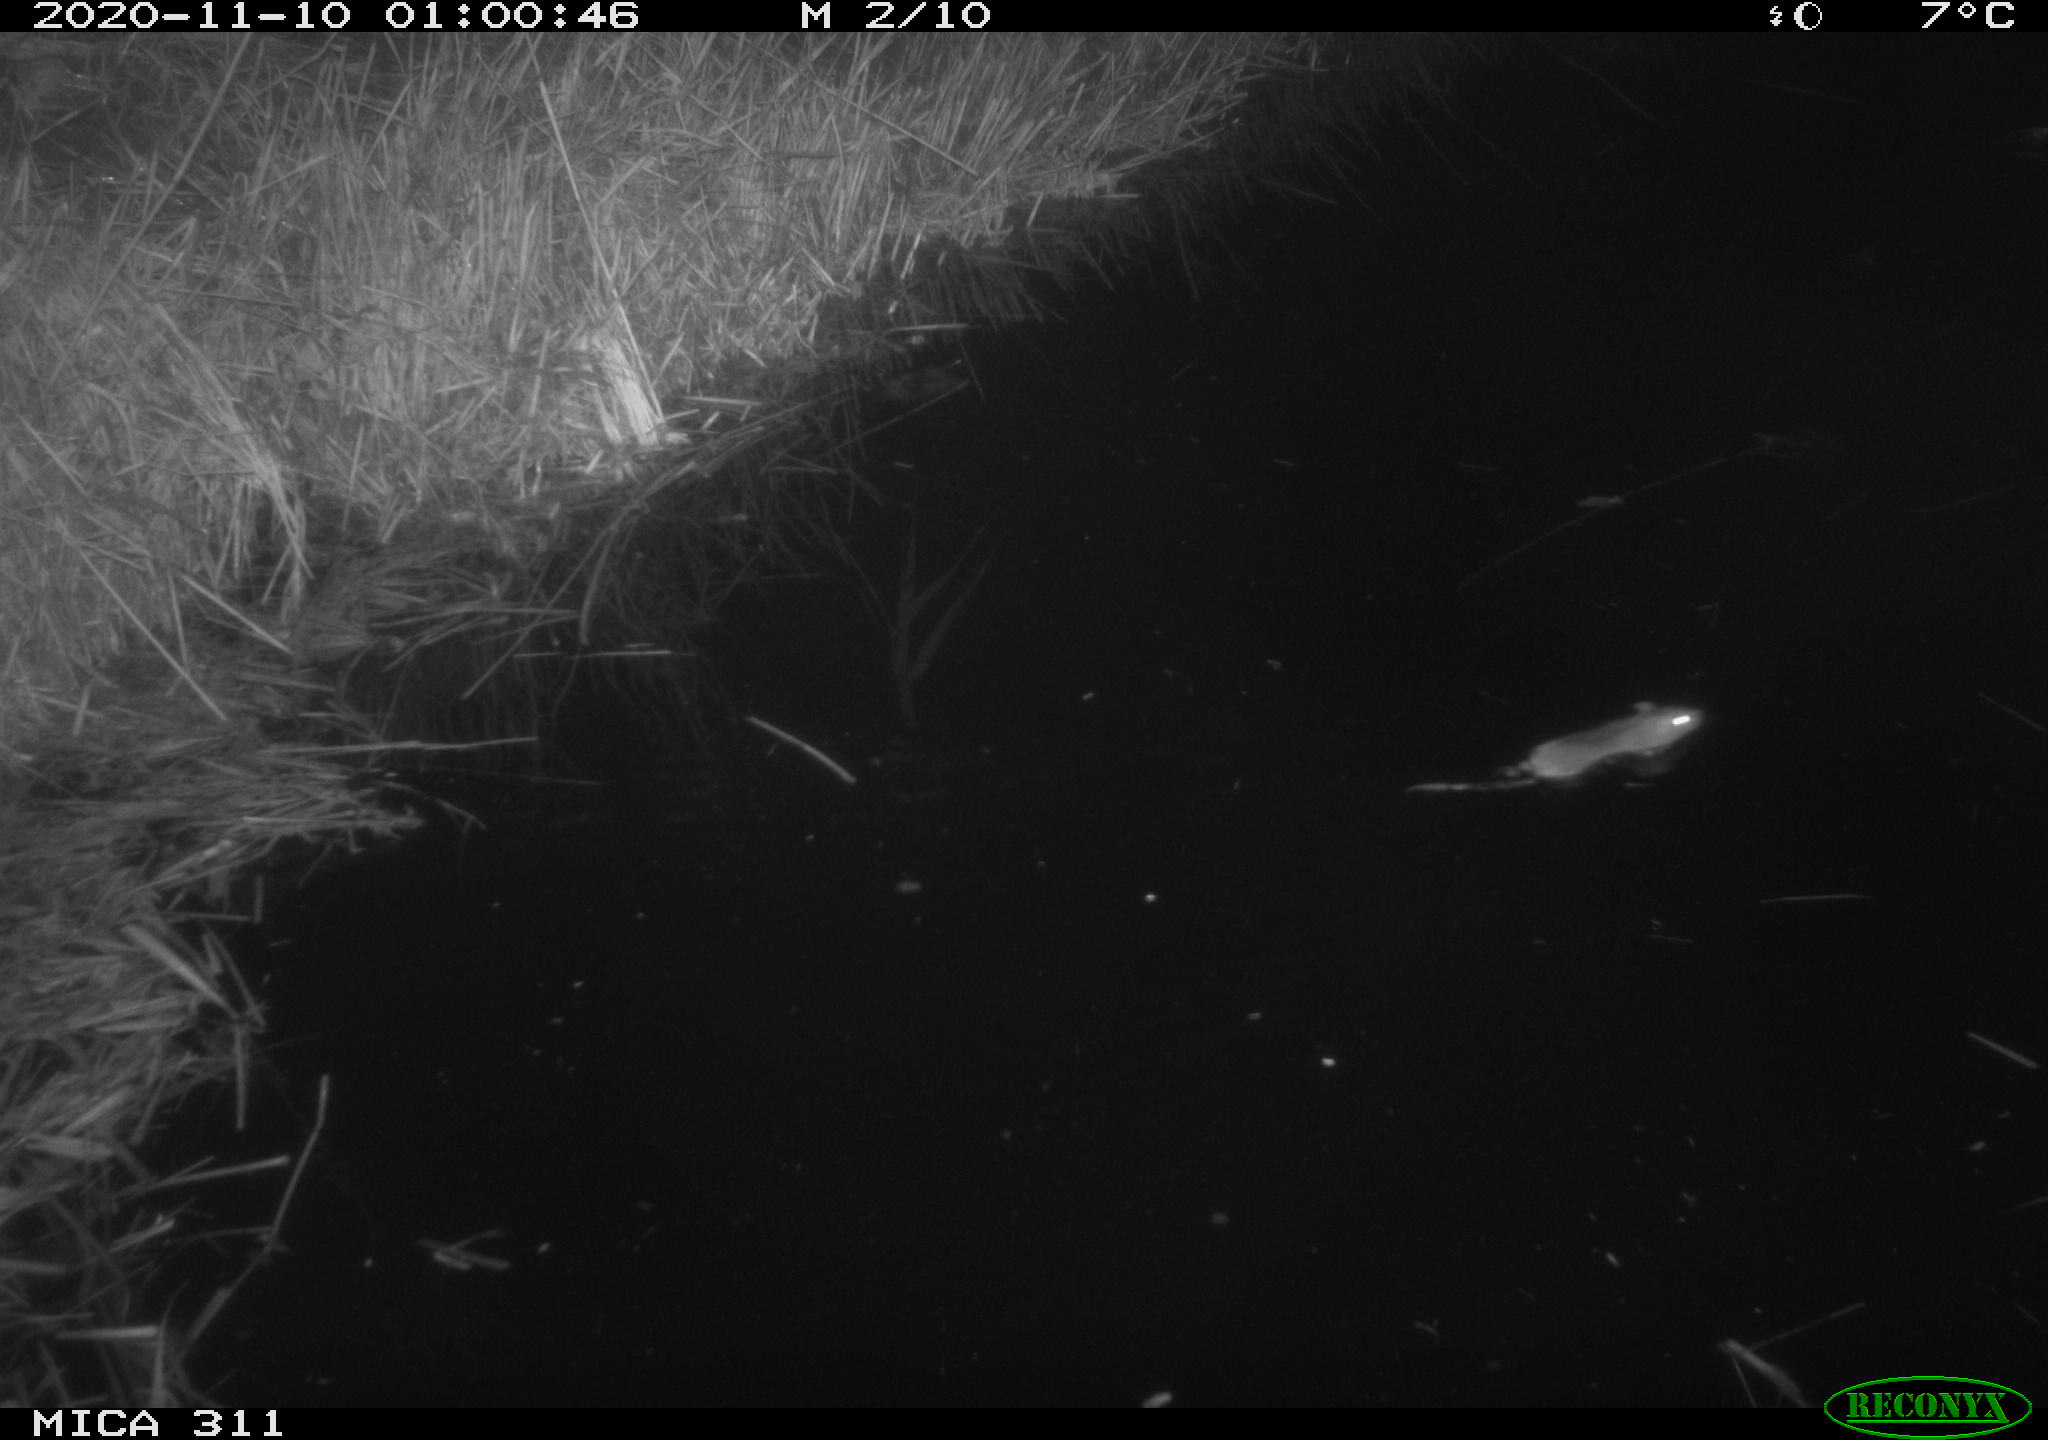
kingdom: Animalia
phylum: Chordata
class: Mammalia
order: Rodentia
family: Muridae
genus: Rattus
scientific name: Rattus norvegicus
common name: Brown rat
